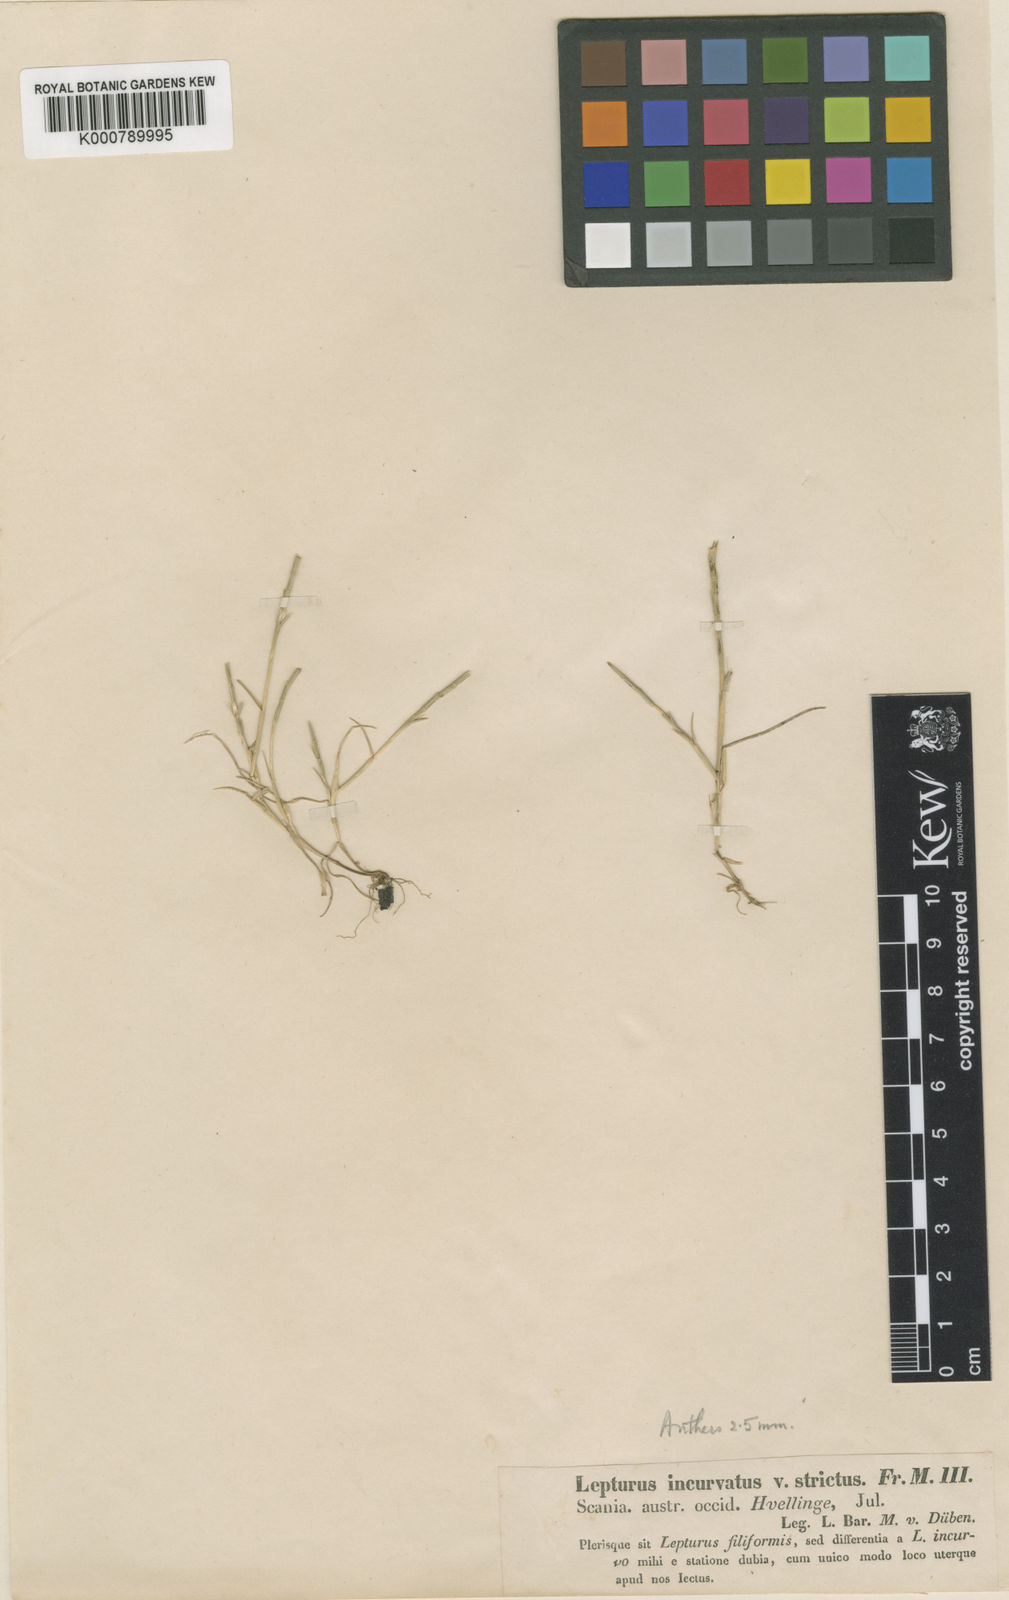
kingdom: Plantae
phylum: Tracheophyta
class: Liliopsida
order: Poales
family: Poaceae
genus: Parapholis
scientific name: Parapholis strigosa
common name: Hard-grass
